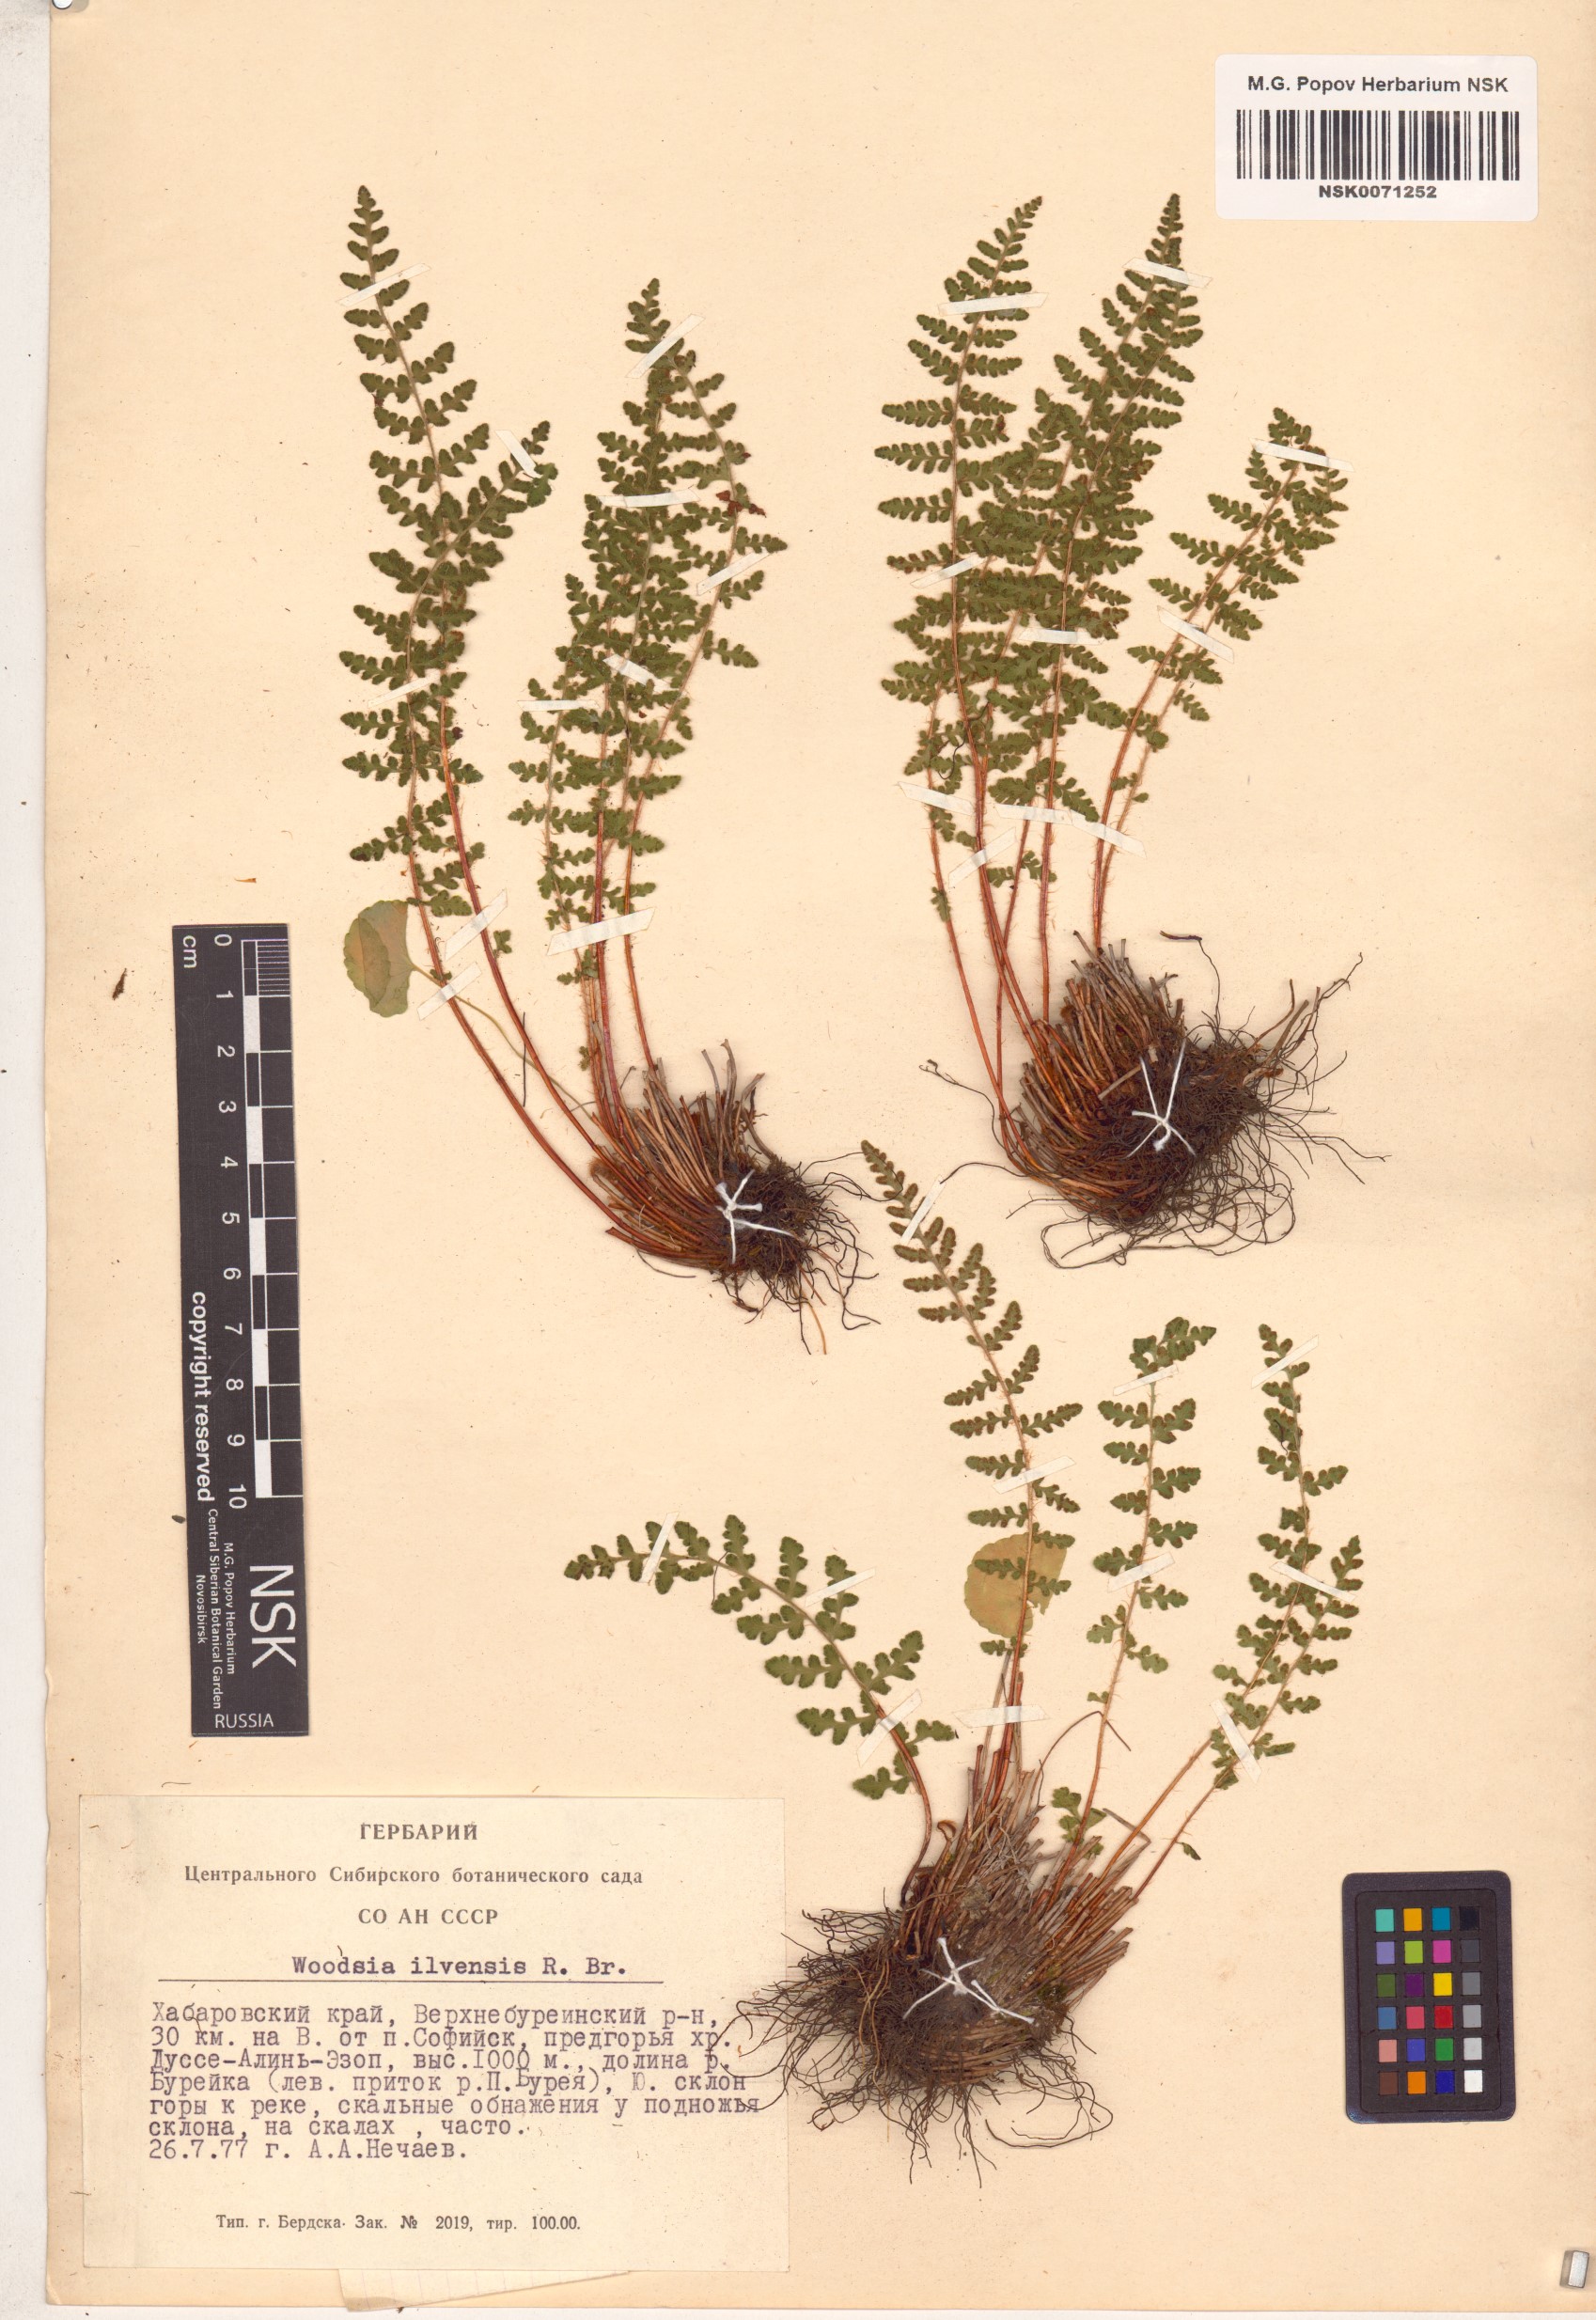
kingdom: Plantae
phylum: Tracheophyta
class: Polypodiopsida
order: Polypodiales
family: Woodsiaceae
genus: Woodsia
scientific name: Woodsia ilvensis
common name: Fragrant woodsia
